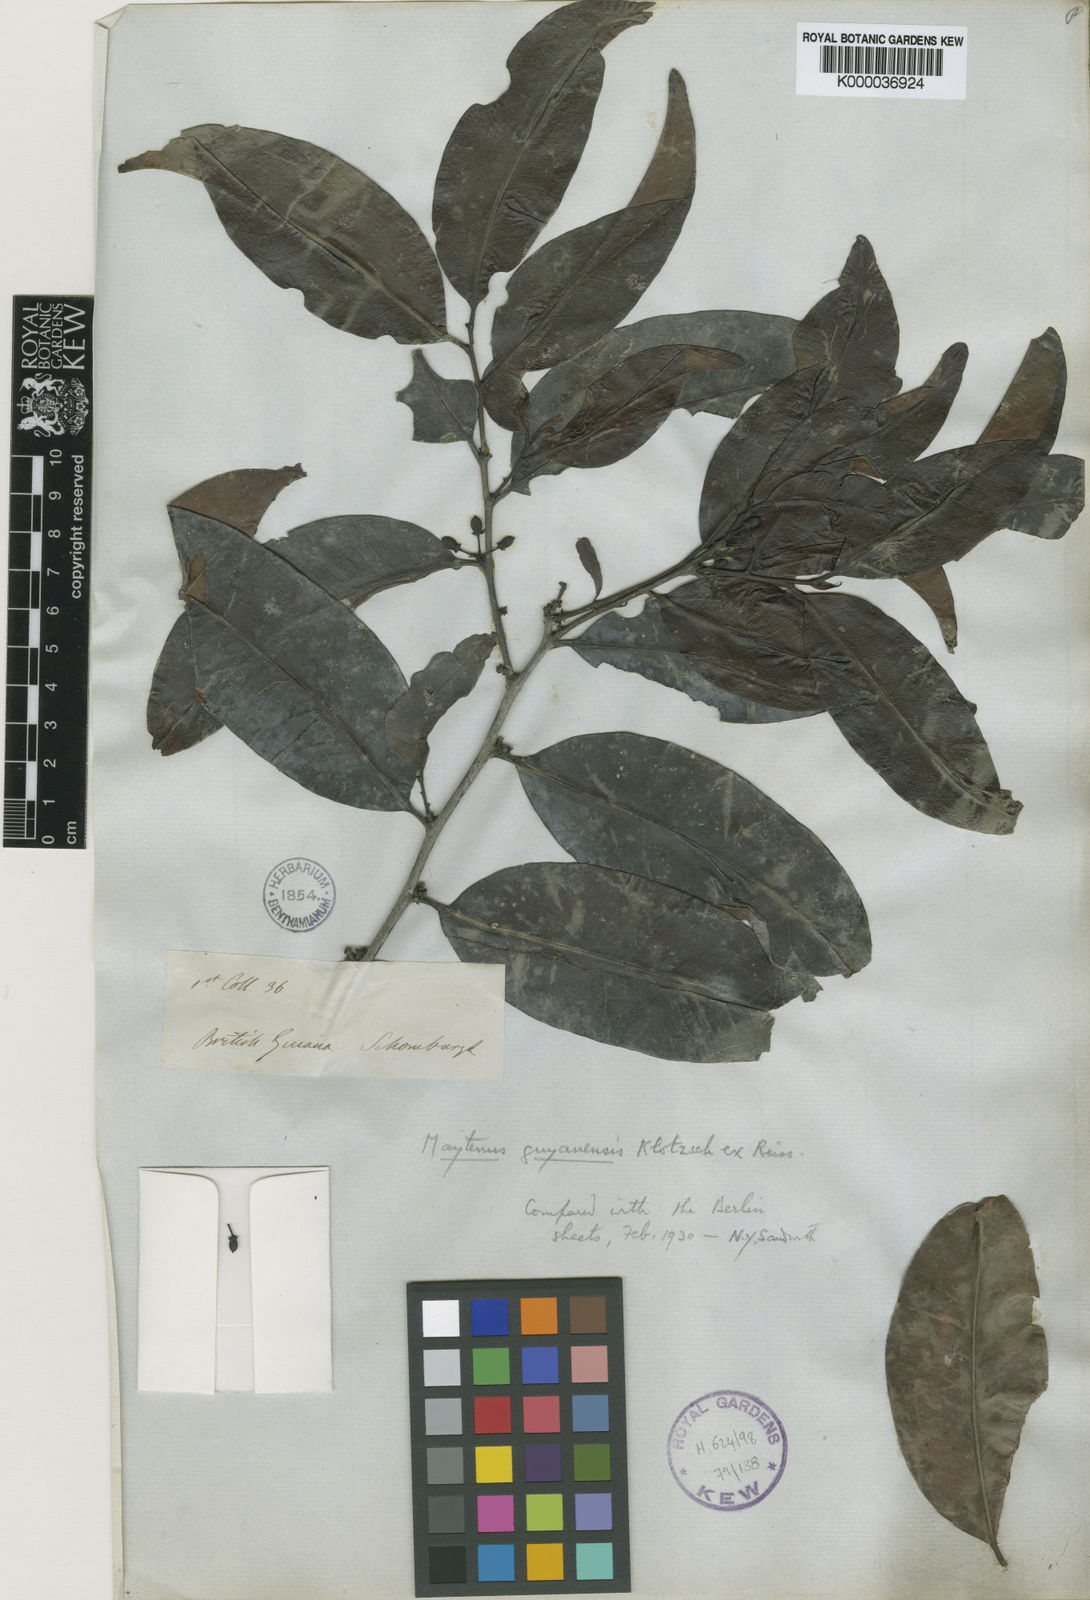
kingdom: Plantae
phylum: Tracheophyta
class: Magnoliopsida
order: Celastrales
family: Celastraceae
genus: Monteverdia
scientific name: Monteverdia guyanensis
